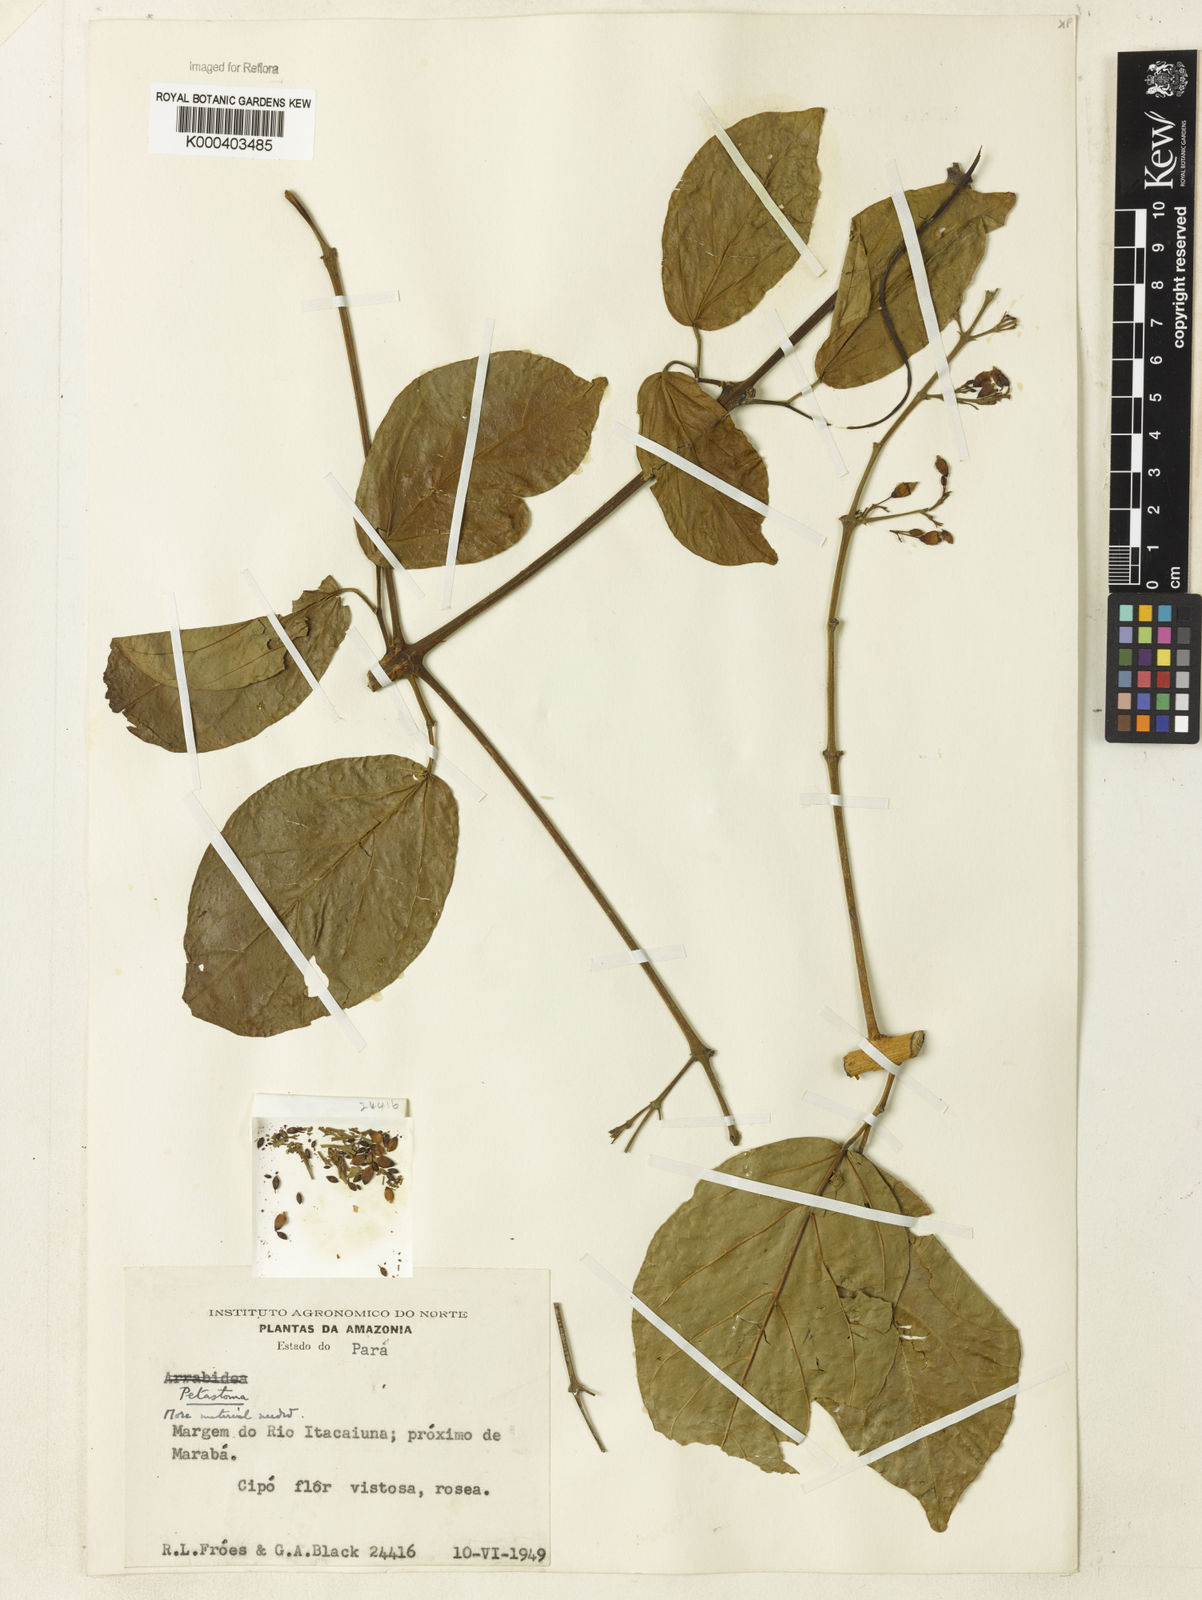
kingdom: Plantae
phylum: Tracheophyta
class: Magnoliopsida
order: Rosales
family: Rhamnaceae
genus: Arrabidaea
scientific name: Arrabidaea
